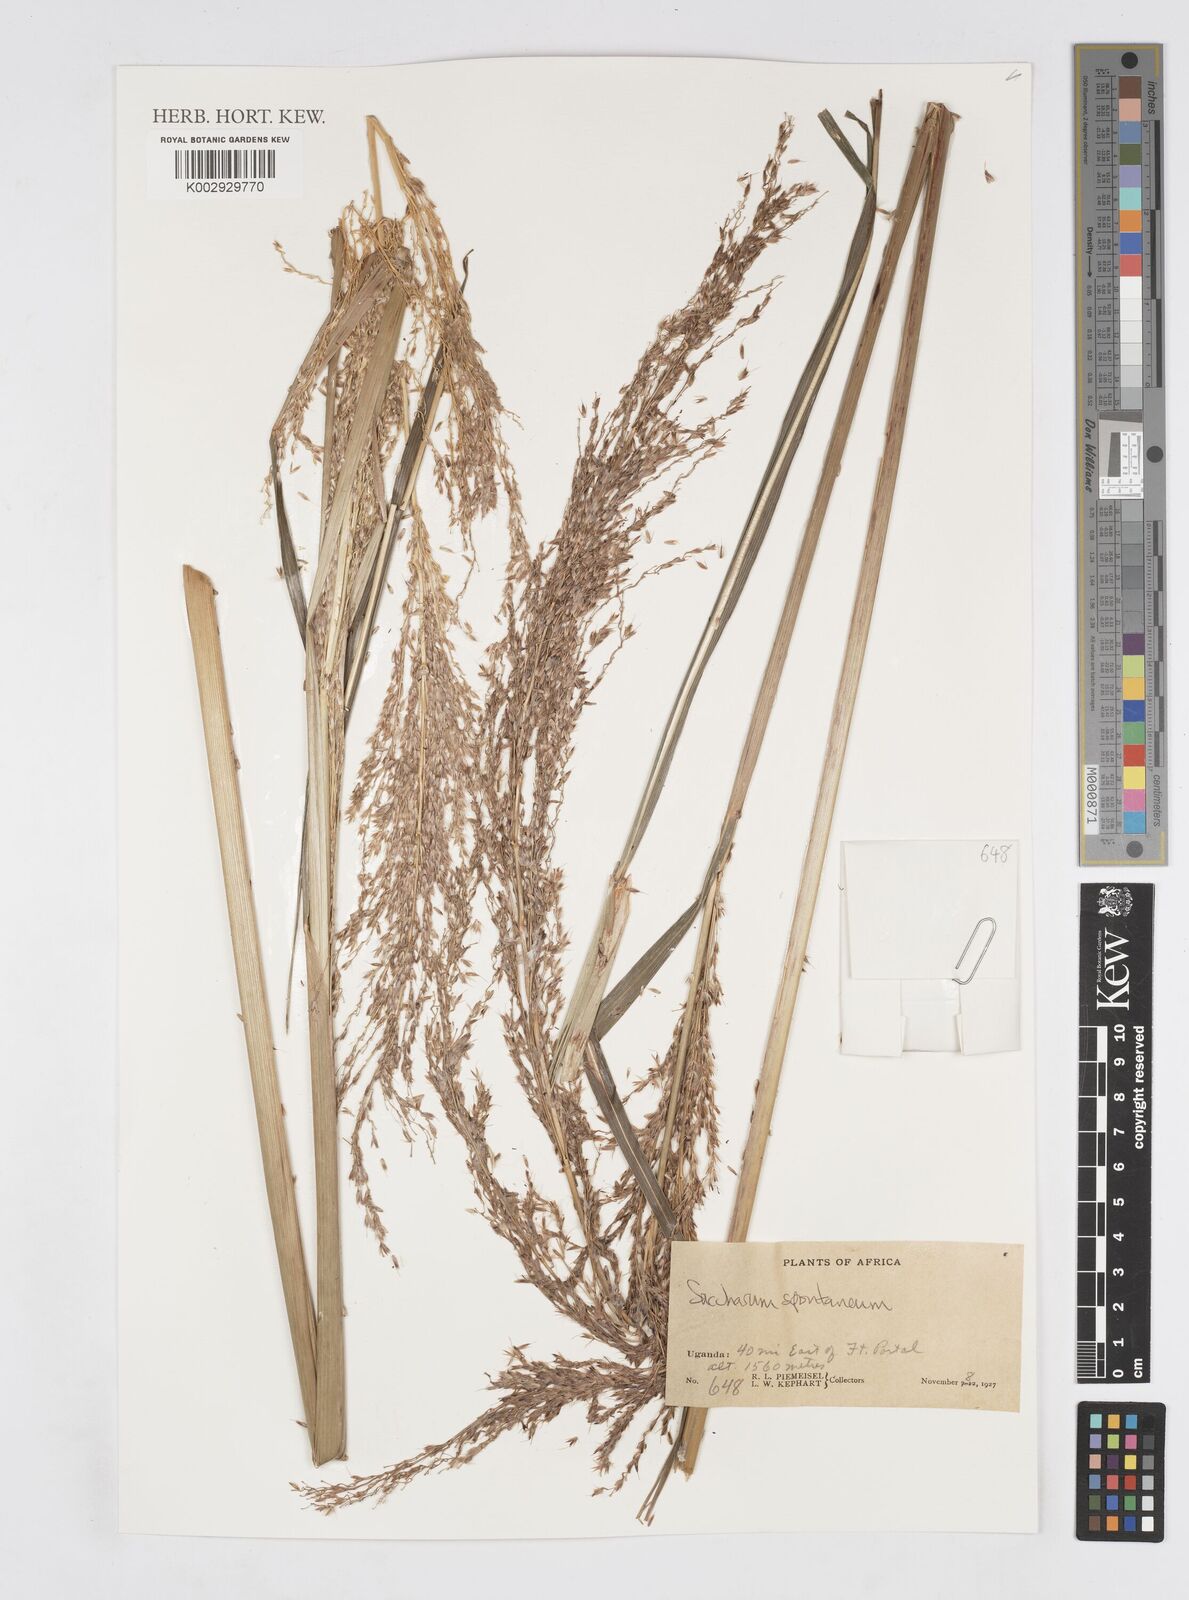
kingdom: Plantae
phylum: Tracheophyta
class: Liliopsida
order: Poales
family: Poaceae
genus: Saccharum
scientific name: Saccharum spontaneum
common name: Wild sugarcane
